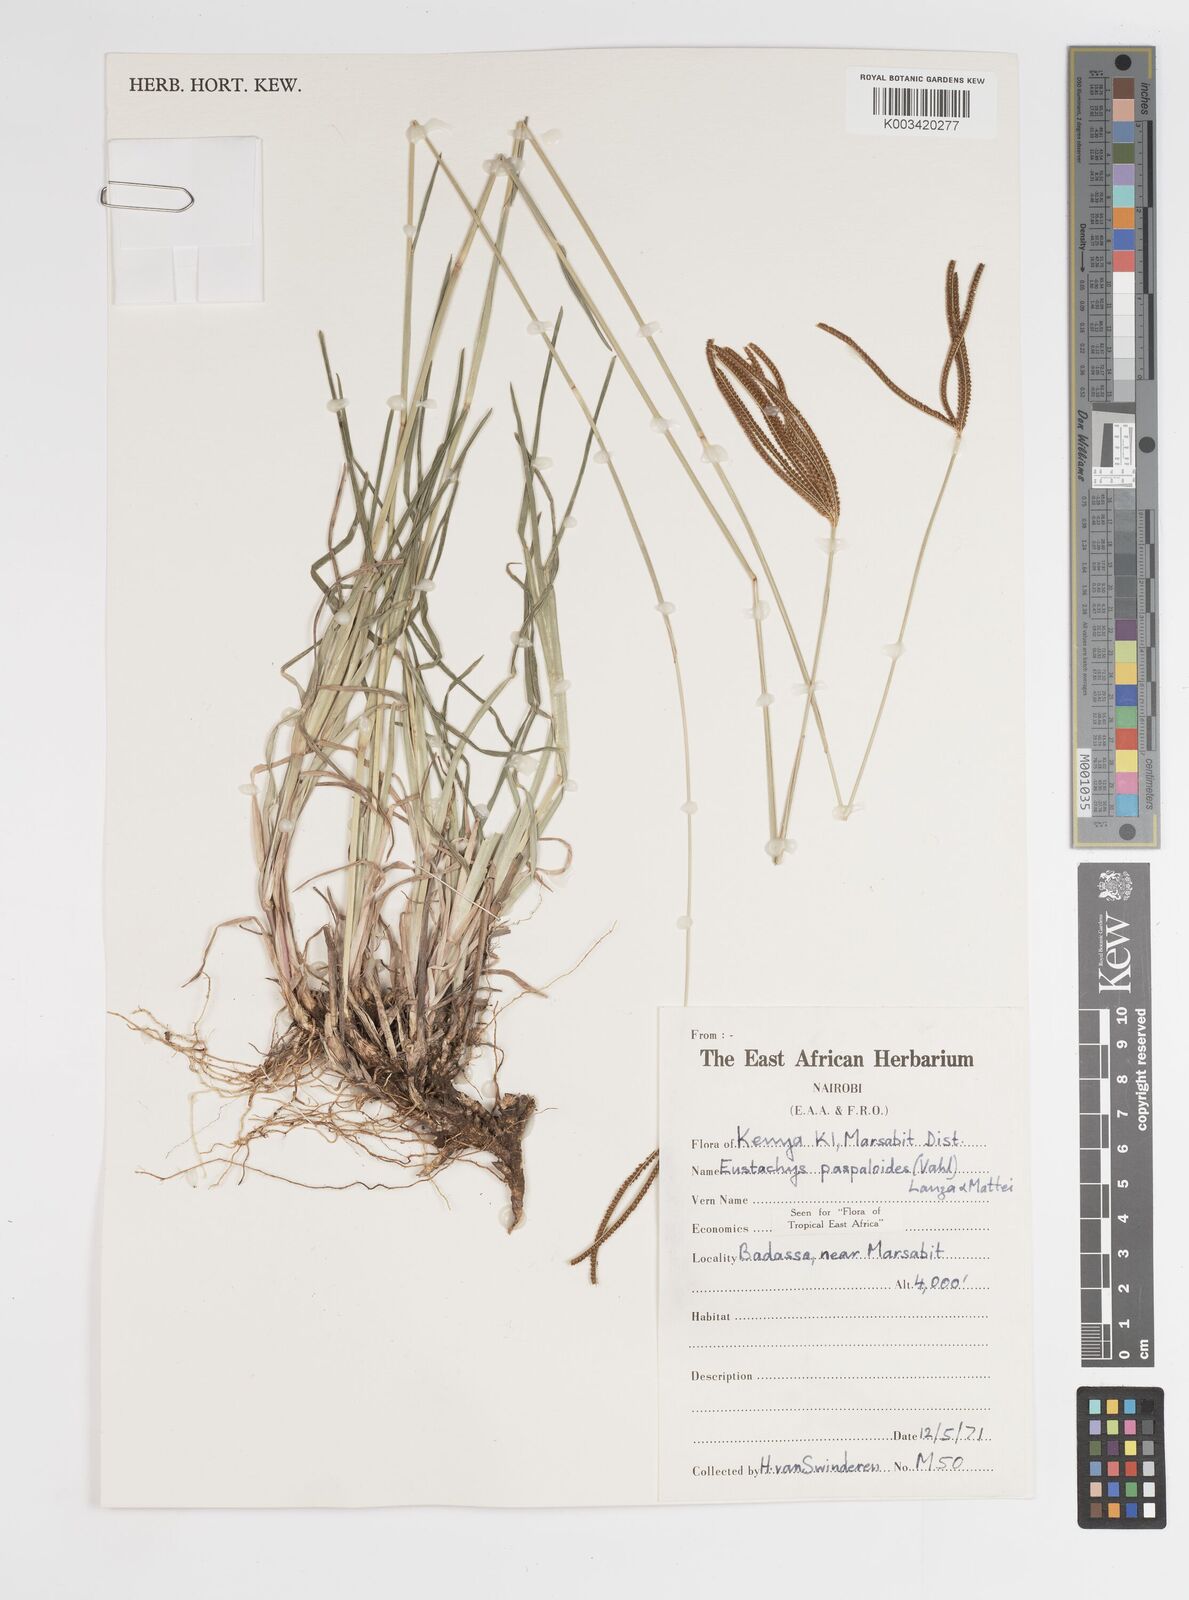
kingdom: Plantae
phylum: Tracheophyta
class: Liliopsida
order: Poales
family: Poaceae
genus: Eustachys
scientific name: Eustachys paspaloides
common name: Caribbean fingergrass
